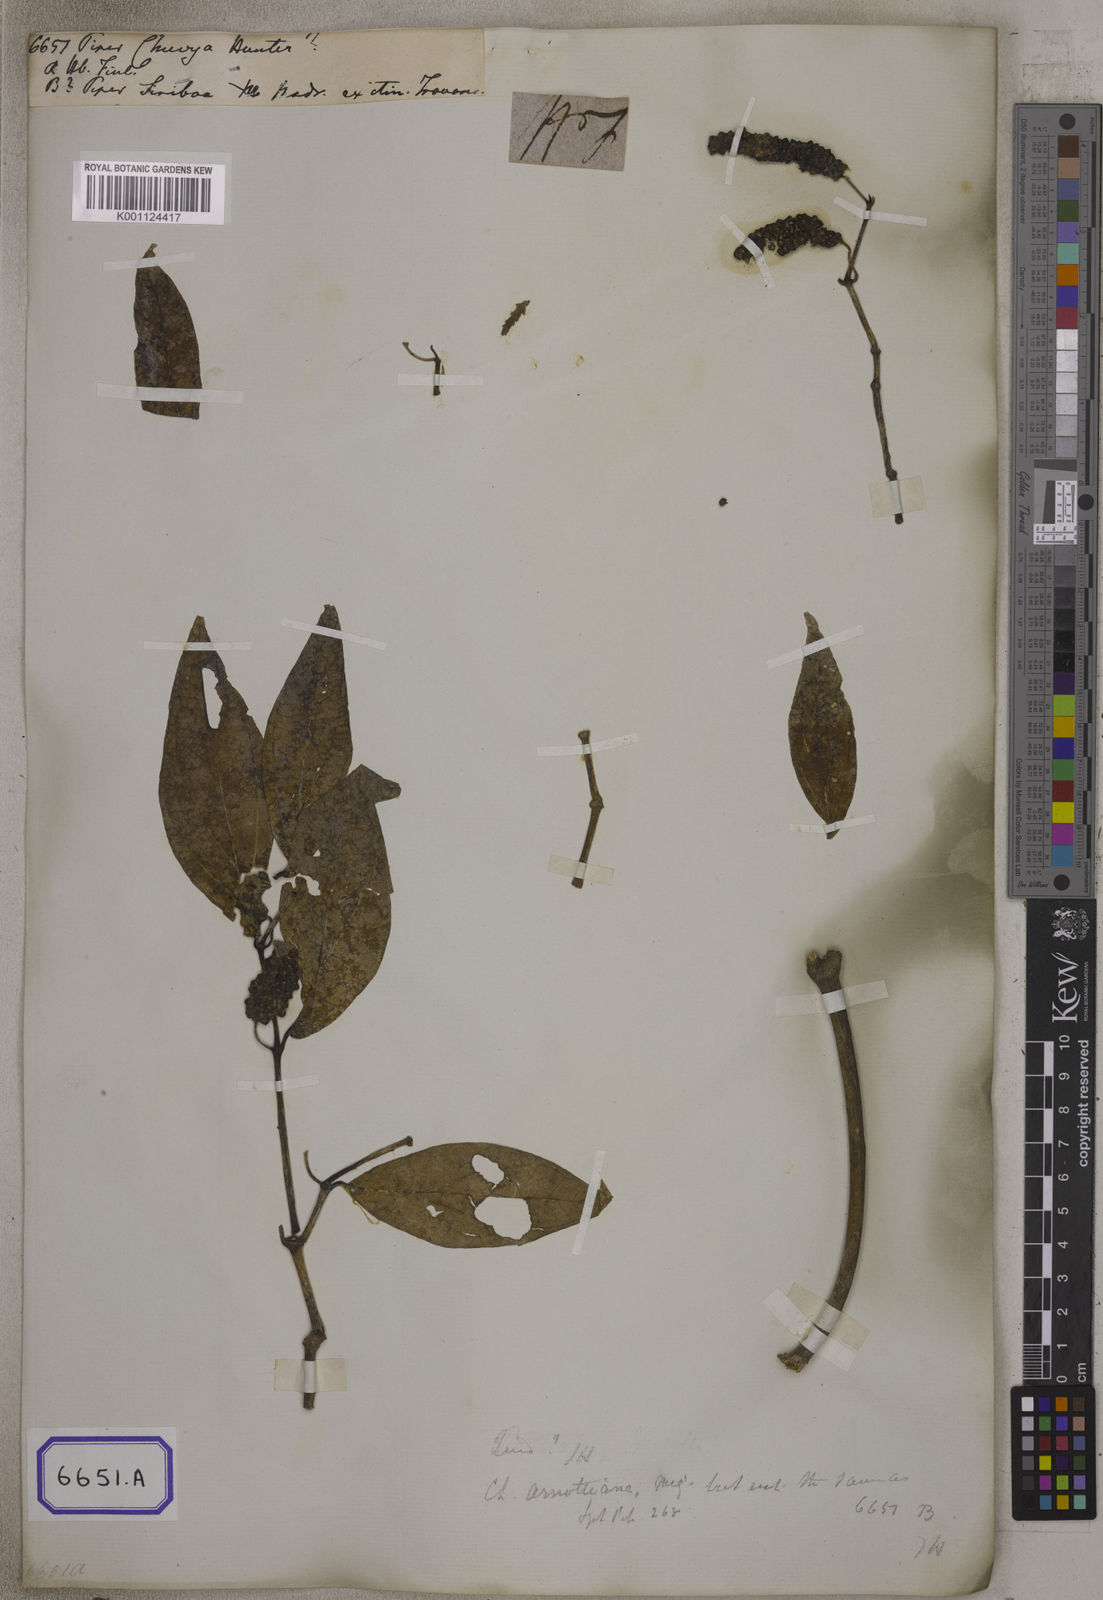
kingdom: Plantae
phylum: Tracheophyta
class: Magnoliopsida
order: Piperales
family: Piperaceae
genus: Piper
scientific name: Piper
